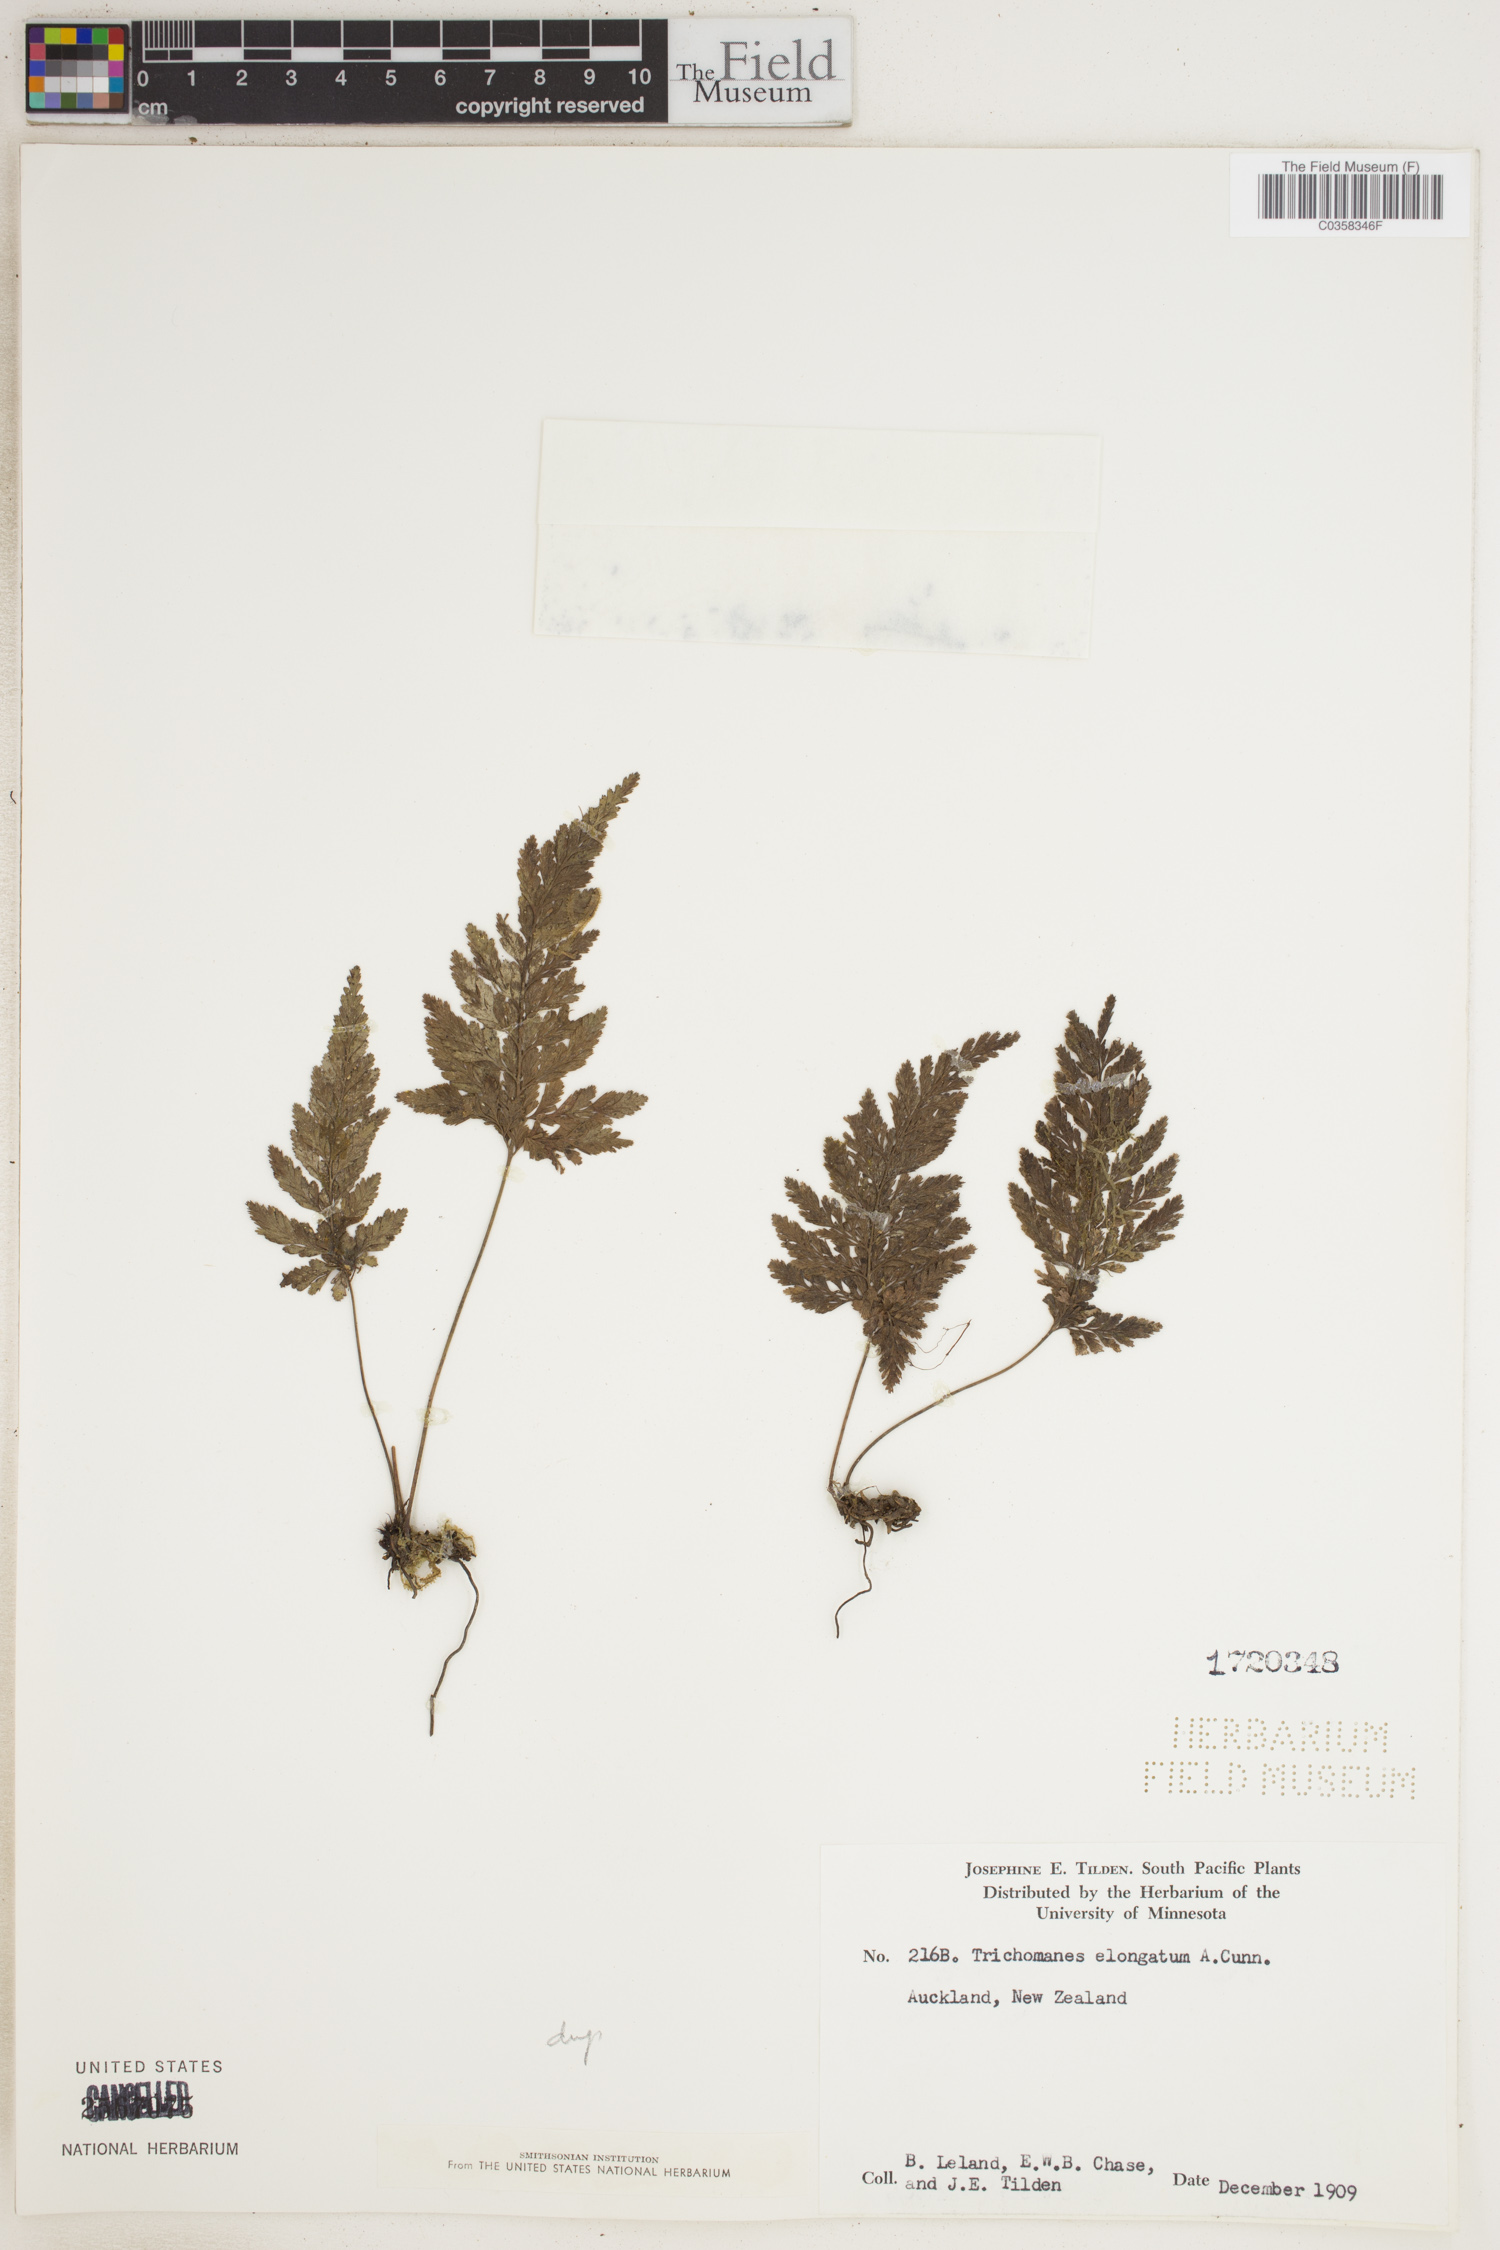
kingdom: Plantae
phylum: Tracheophyta
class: Polypodiopsida
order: Hymenophyllales
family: Hymenophyllaceae
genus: Abrodictyum
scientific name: Abrodictyum elongatum
